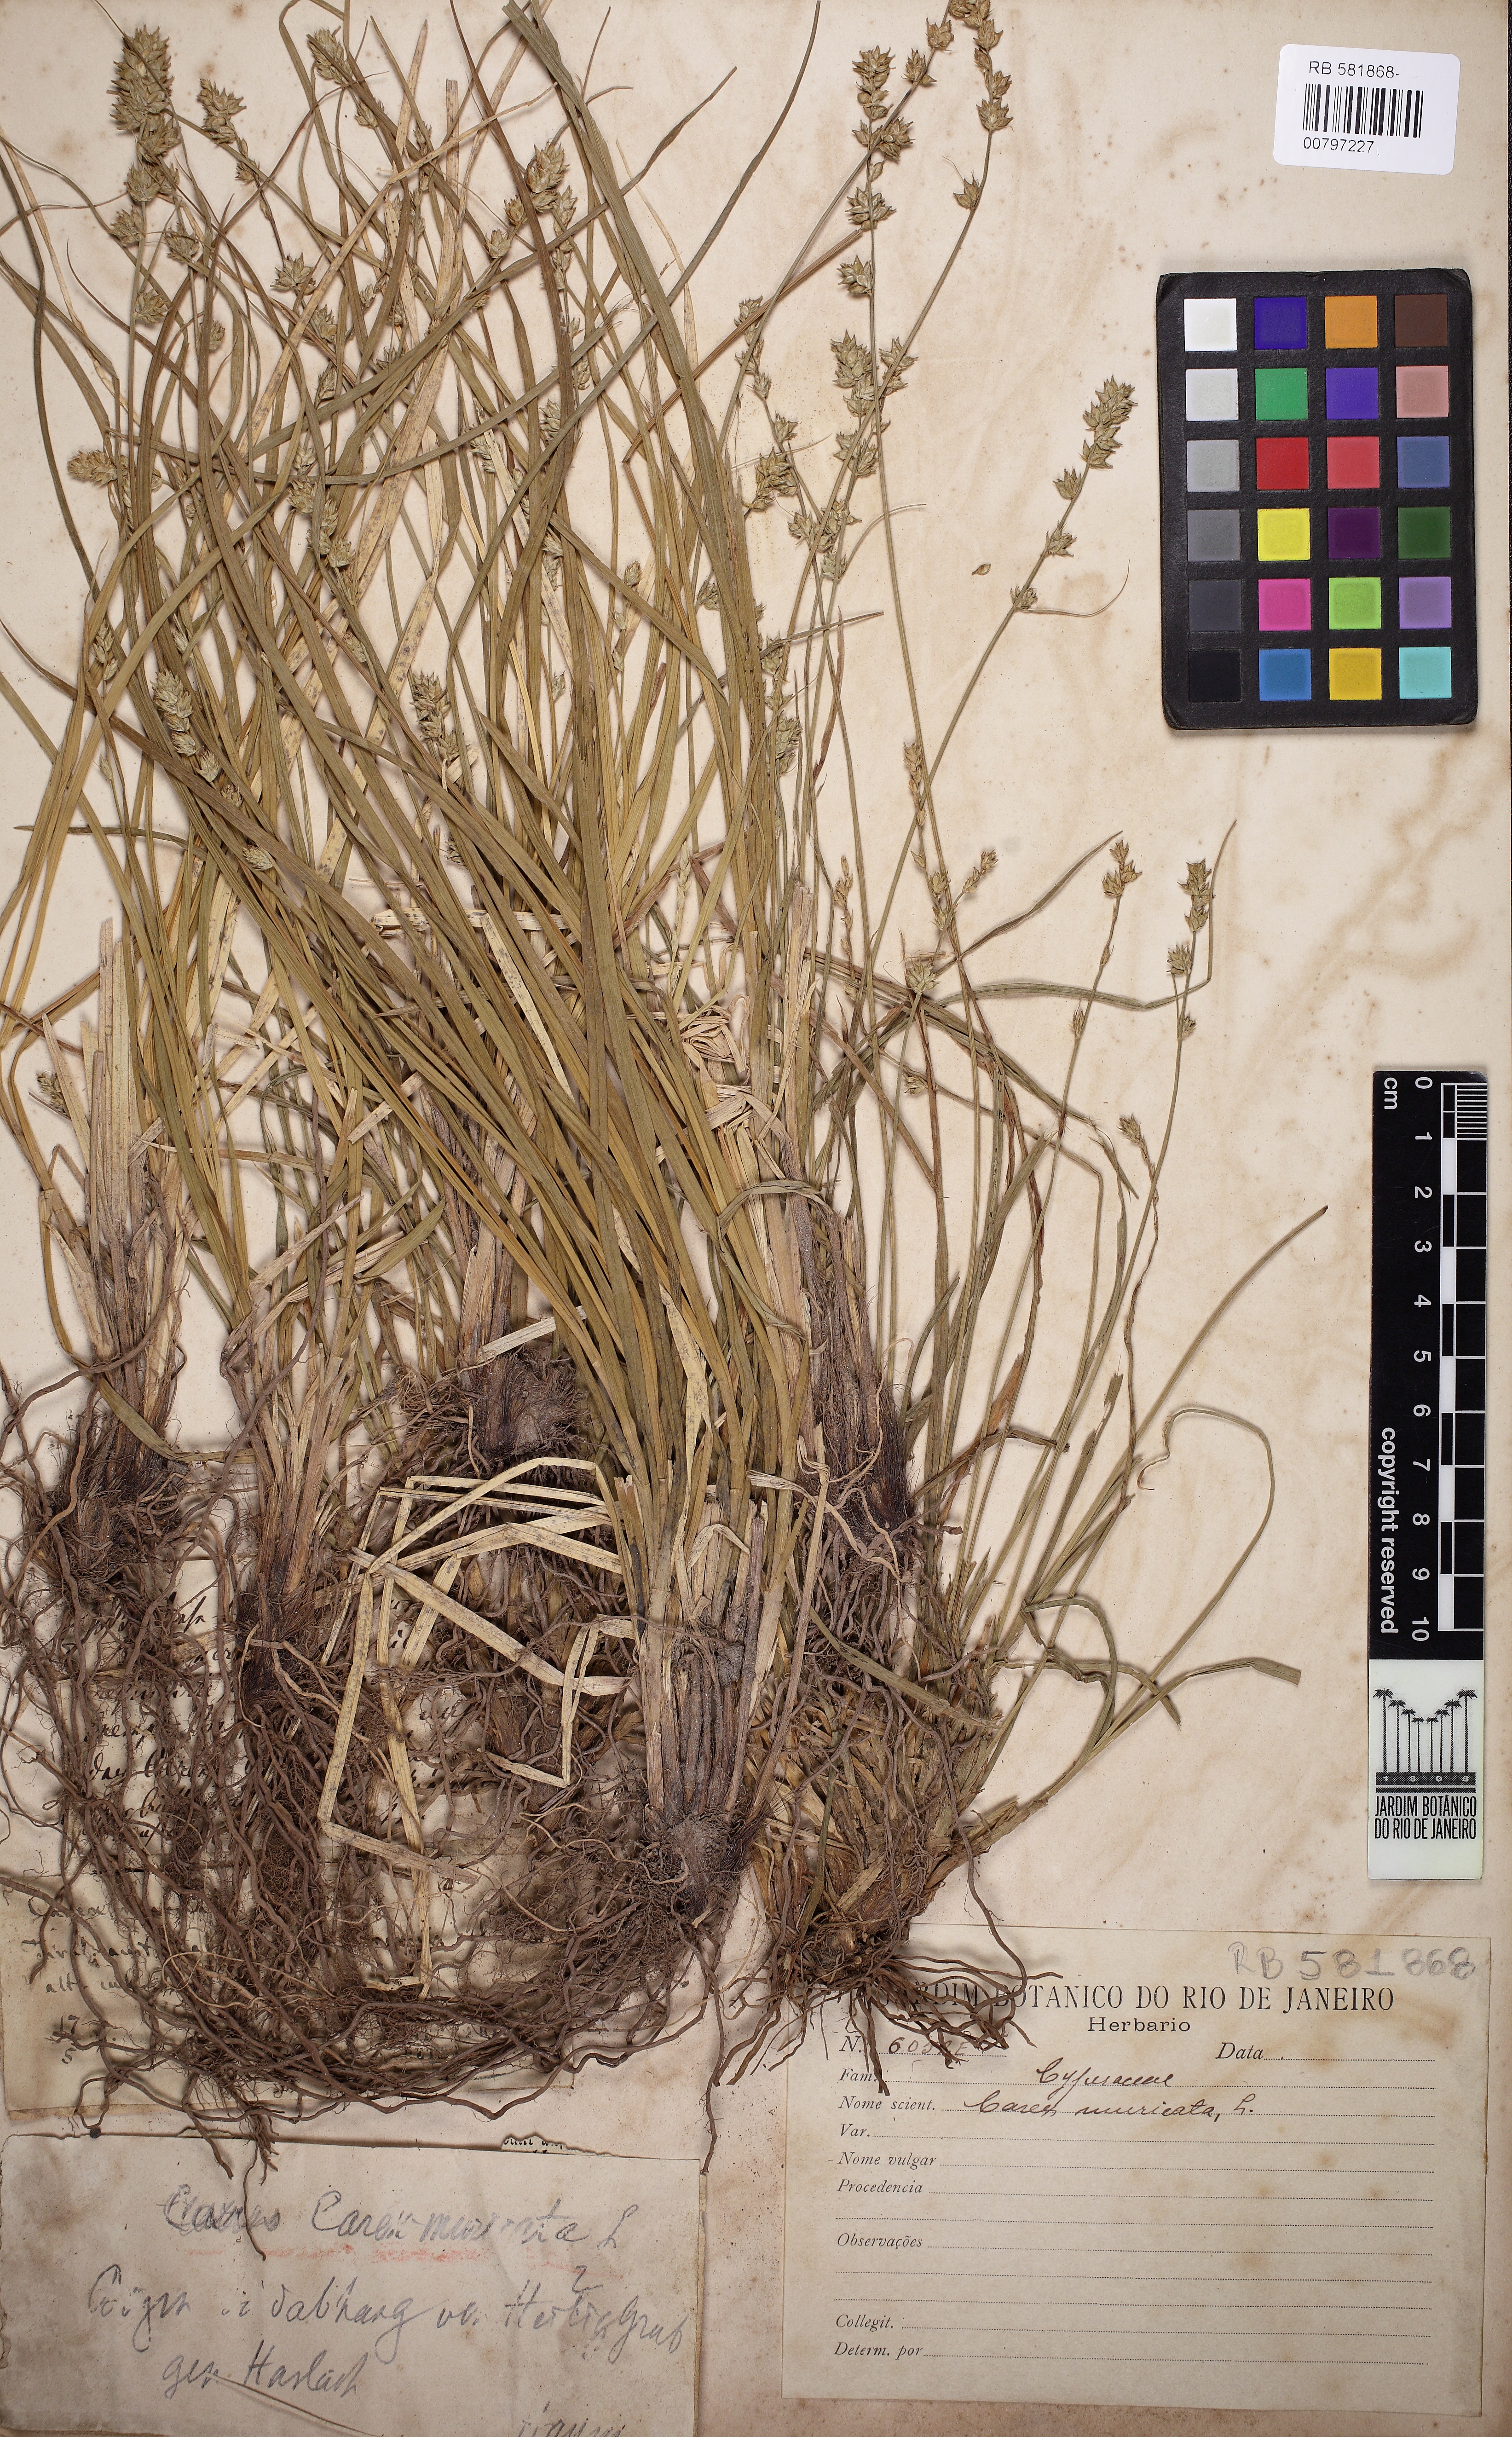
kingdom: Plantae
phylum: Tracheophyta
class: Liliopsida
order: Poales
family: Cyperaceae
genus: Carex
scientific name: Carex muricata
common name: Rough sedge
